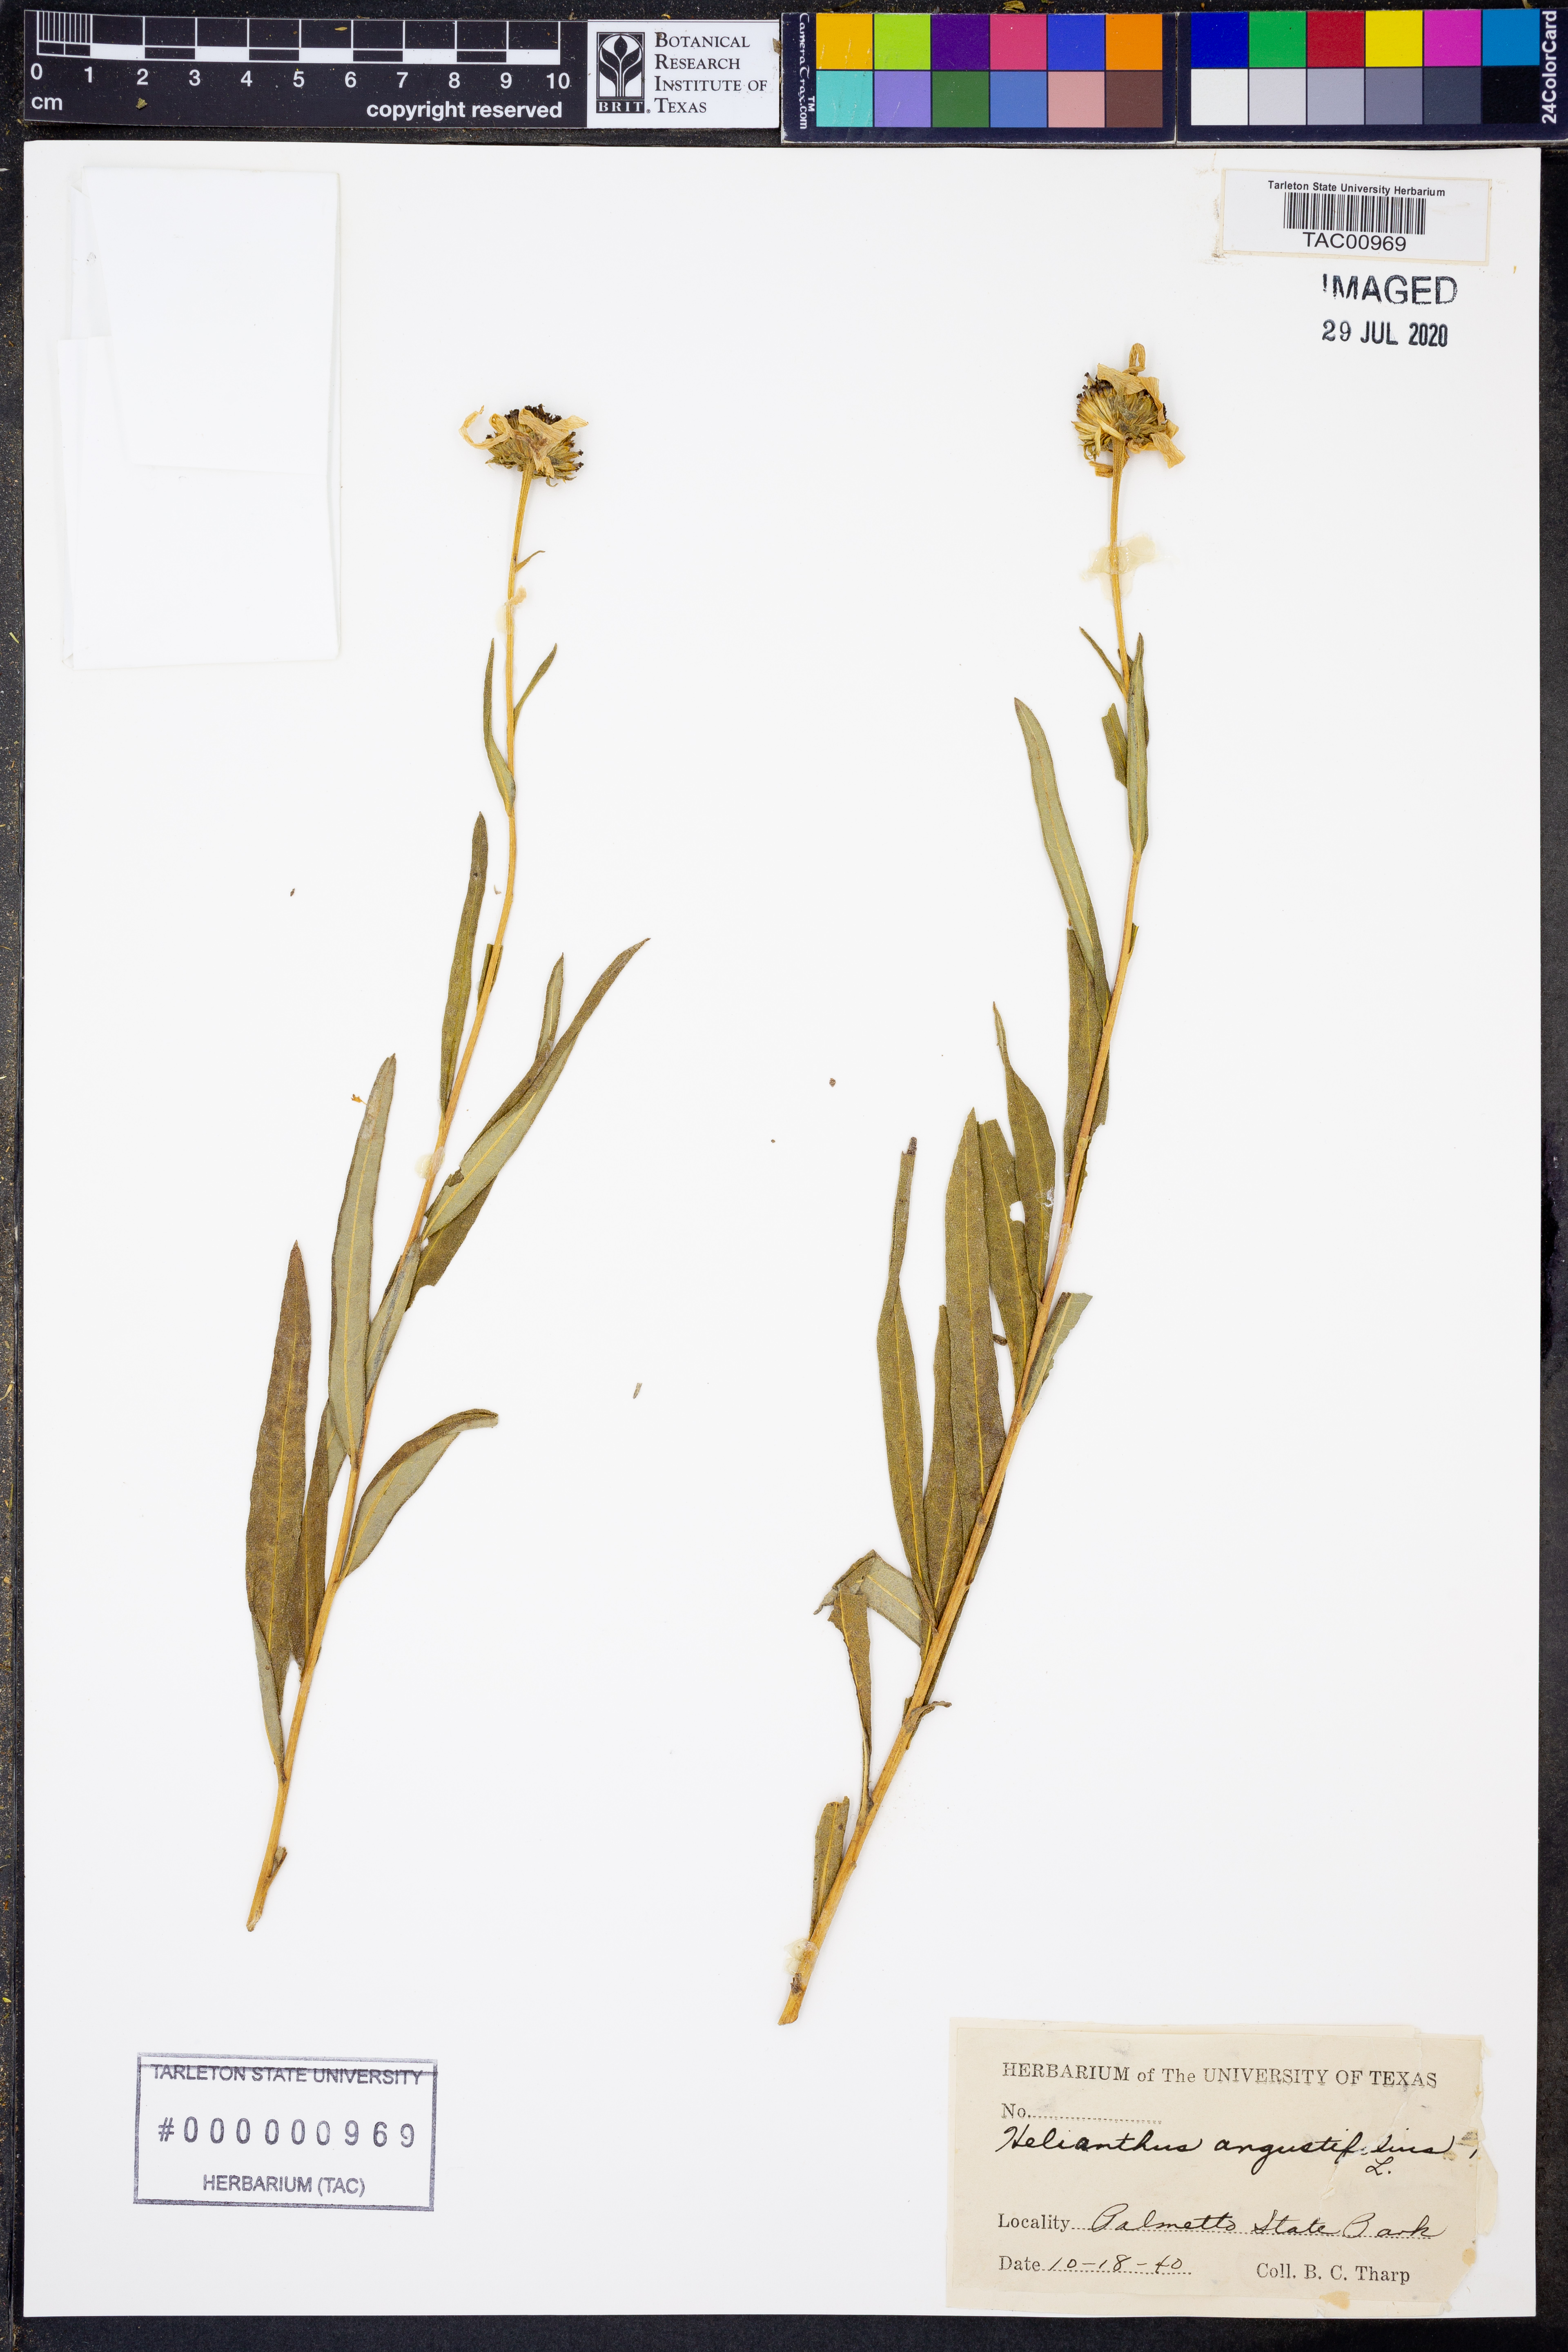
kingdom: Plantae
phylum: Tracheophyta
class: Magnoliopsida
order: Asterales
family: Asteraceae
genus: Helianthus
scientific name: Helianthus angustifolius
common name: Swamp sunflower
